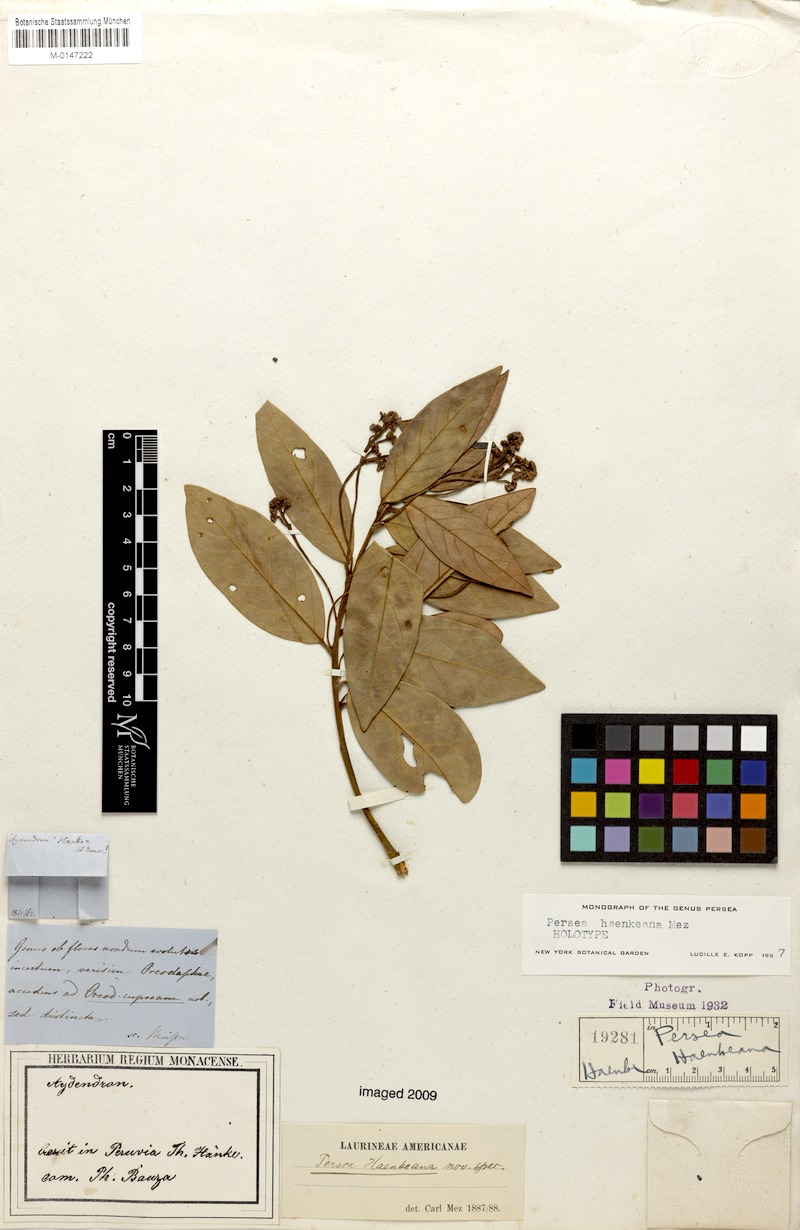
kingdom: Plantae
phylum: Tracheophyta
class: Magnoliopsida
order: Laurales
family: Lauraceae
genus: Persea
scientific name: Persea haenkeana
